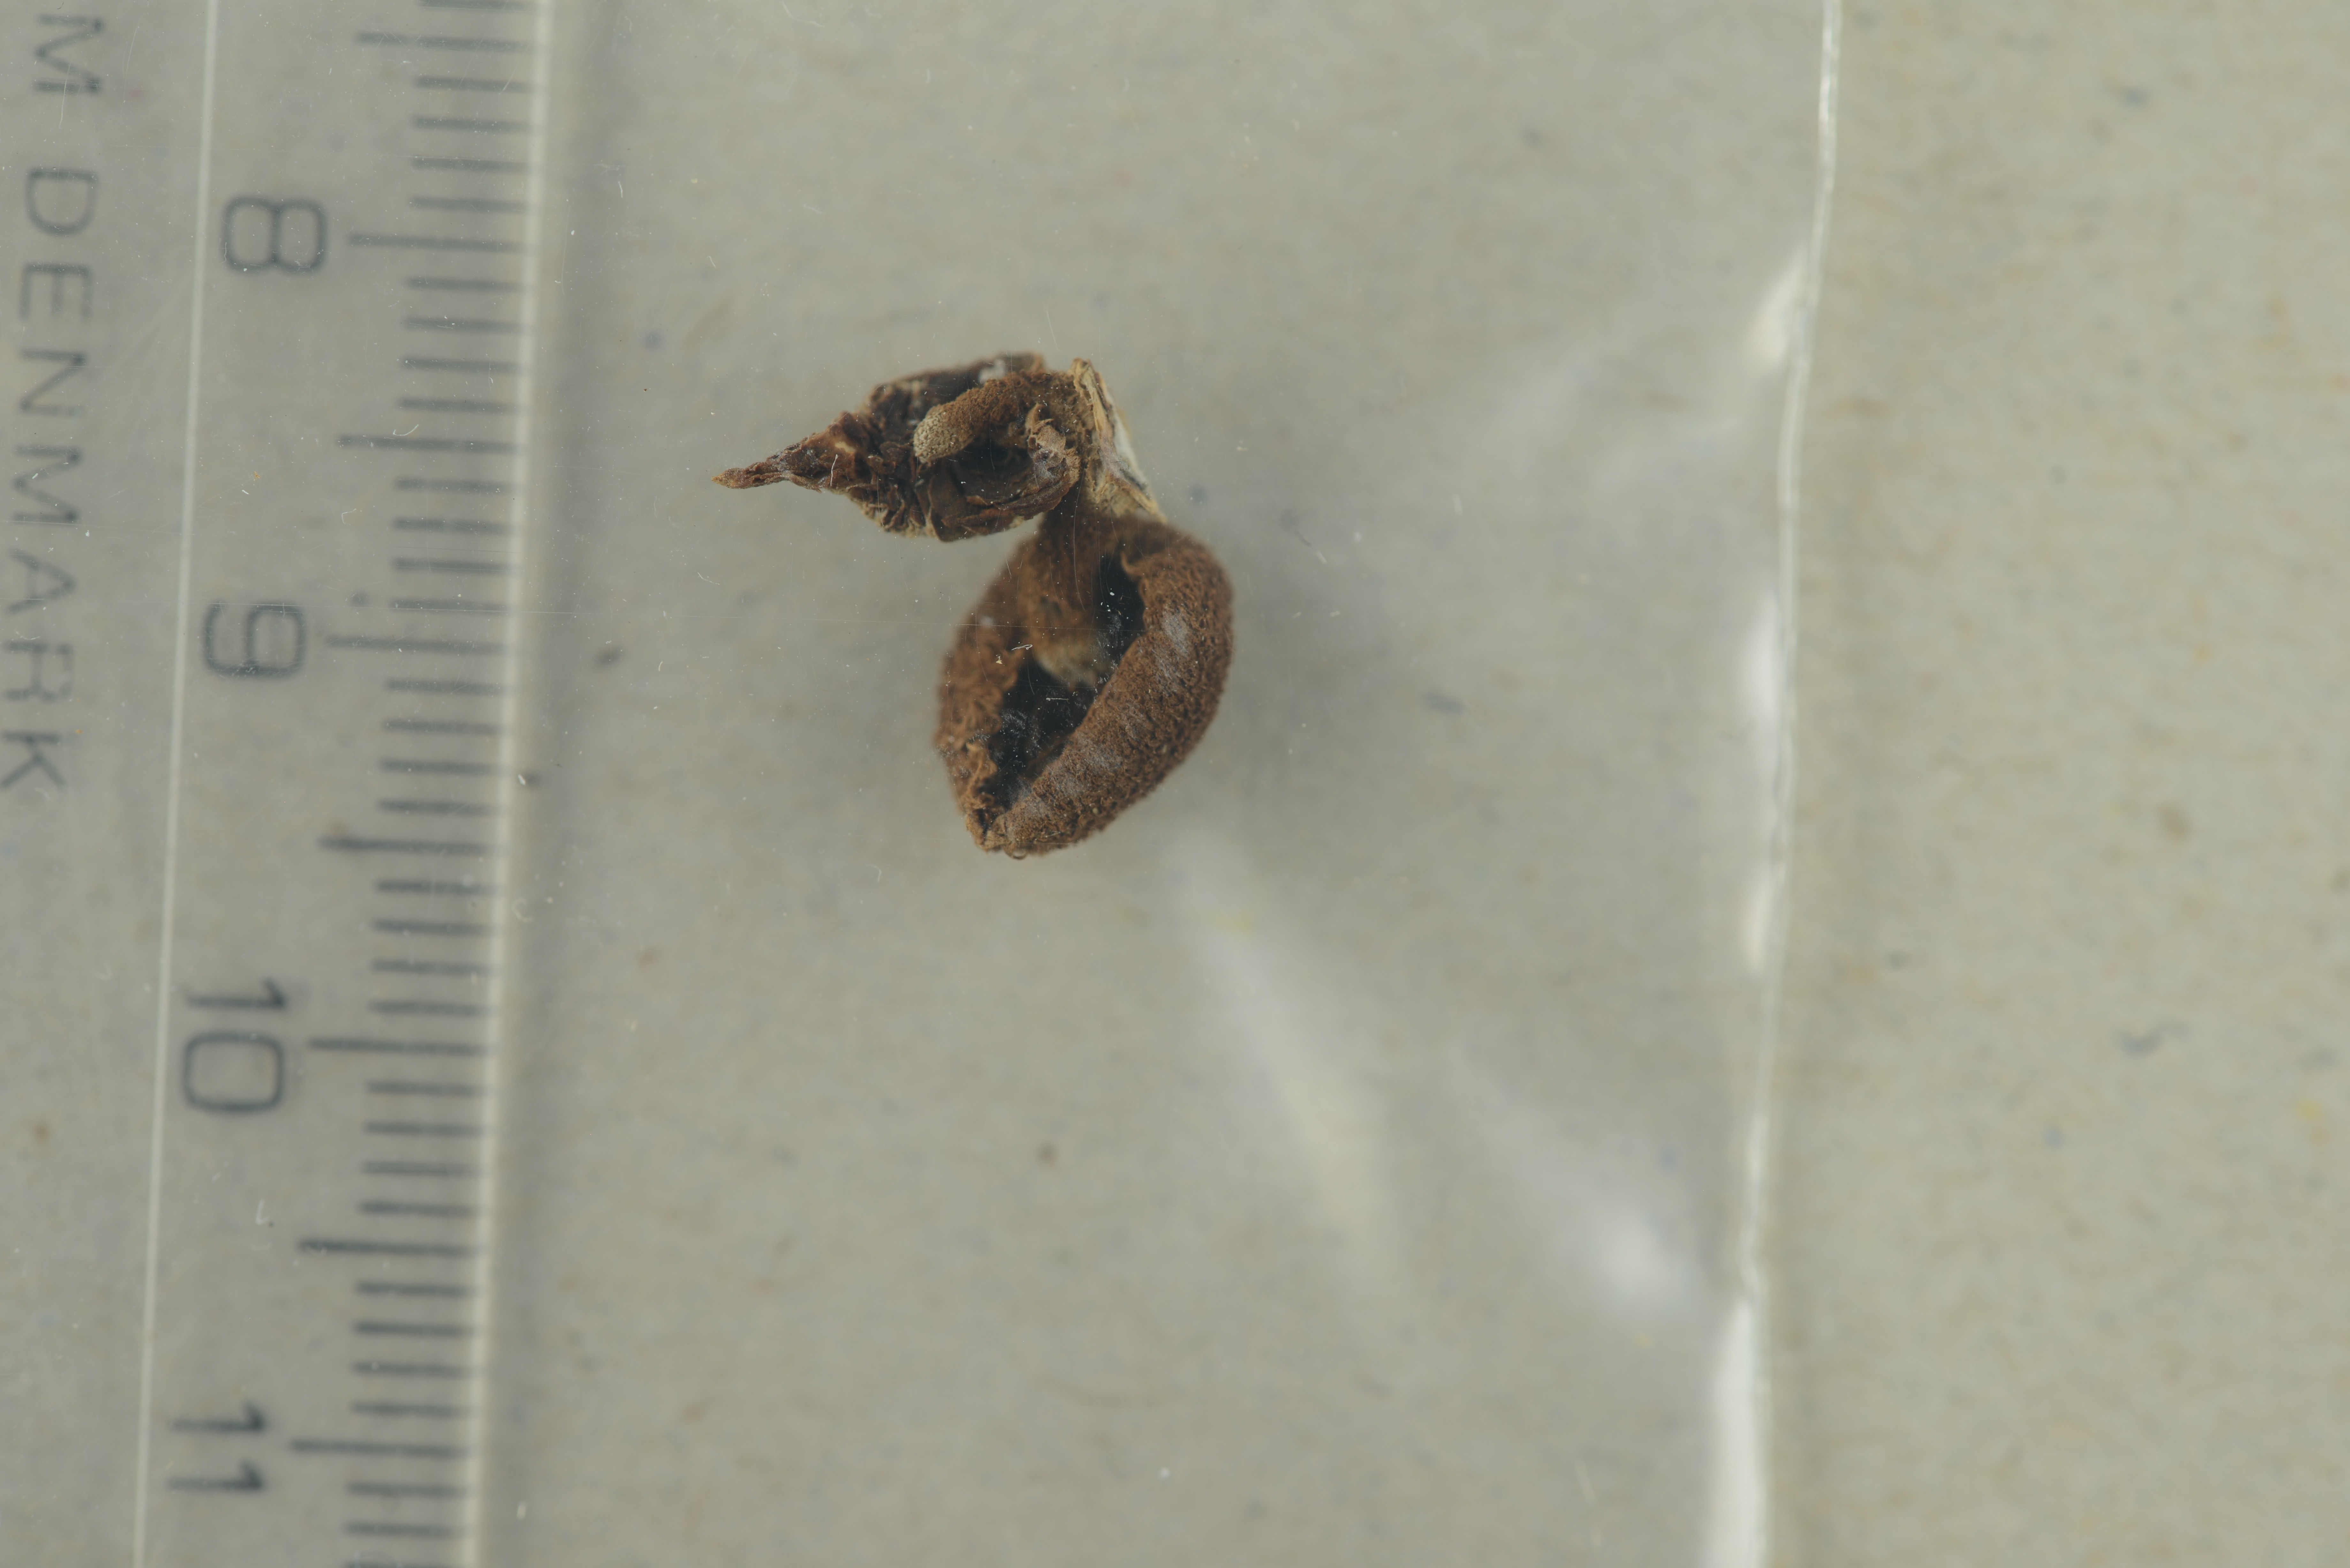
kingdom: Fungi
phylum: Basidiomycota
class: Agaricomycetes
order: Agaricales
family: Tubariaceae
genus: Phaeomarasmius
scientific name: Phaeomarasmius erinaceus
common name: Hedgehog scalycap
